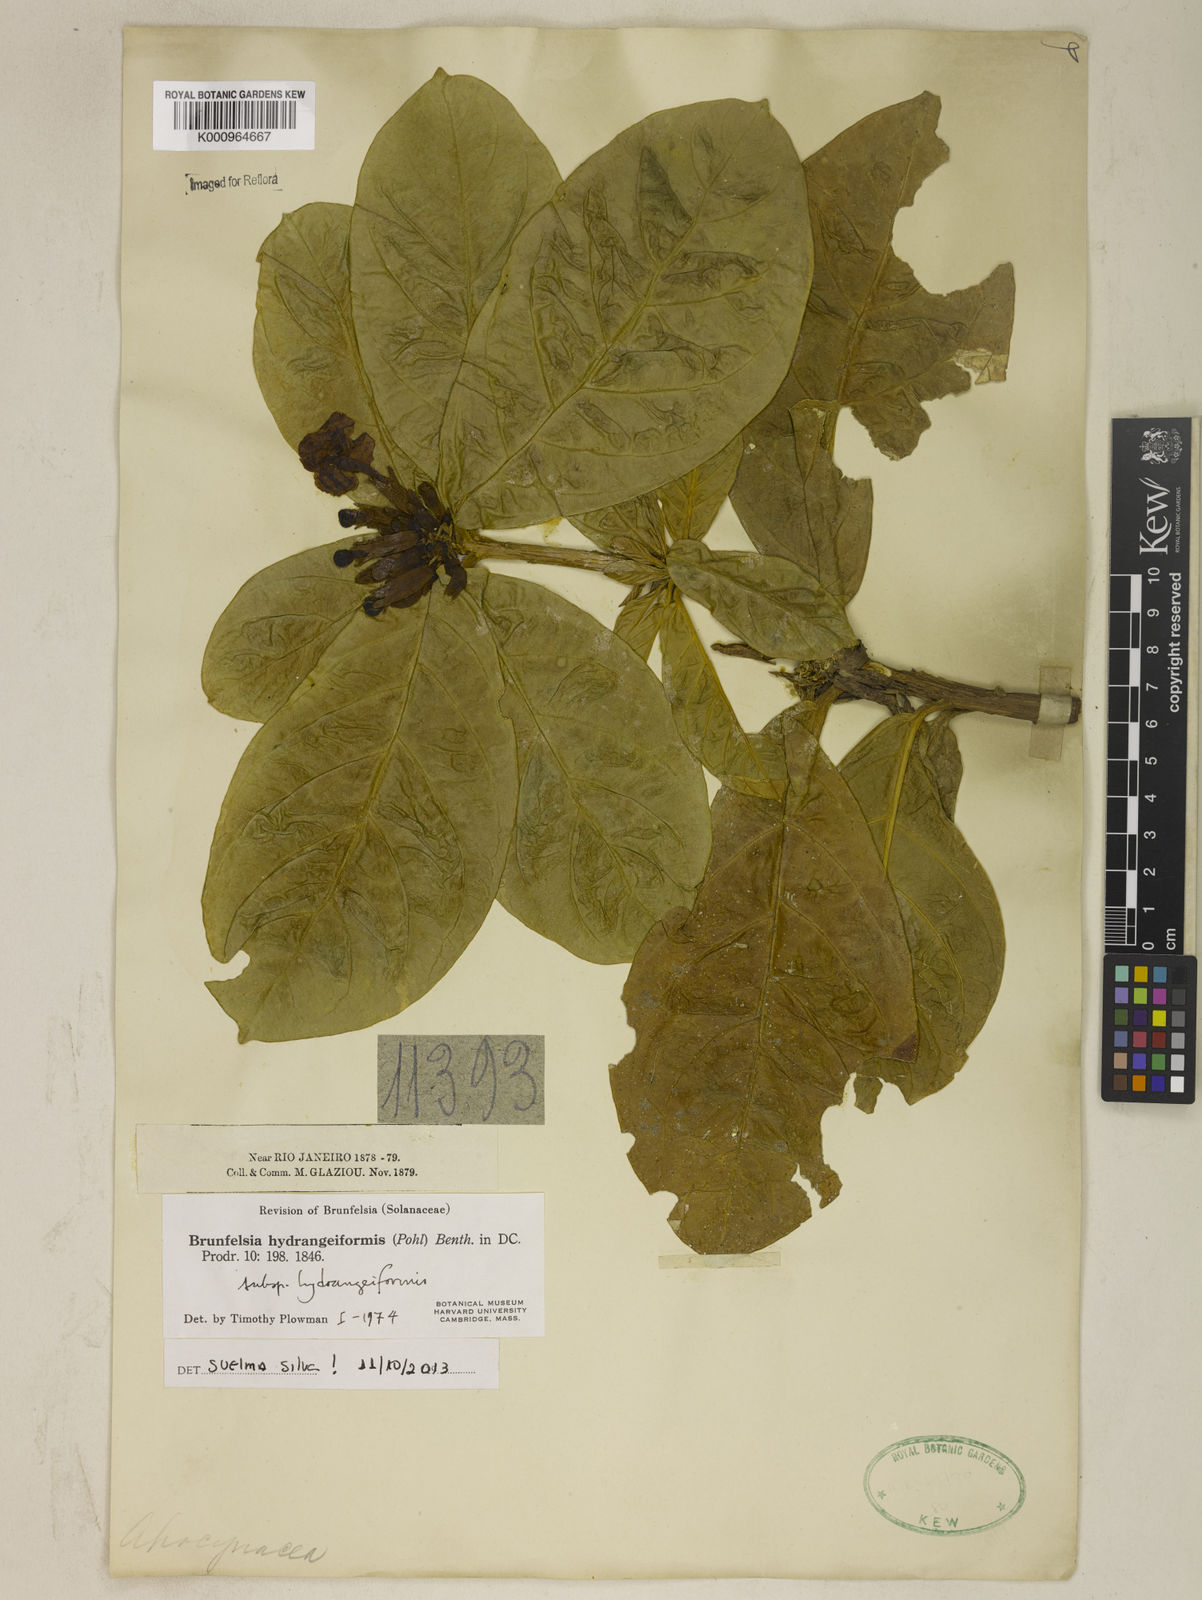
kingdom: Plantae
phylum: Tracheophyta
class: Magnoliopsida
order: Solanales
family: Solanaceae
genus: Brunfelsia
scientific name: Brunfelsia hydrangeiformis
